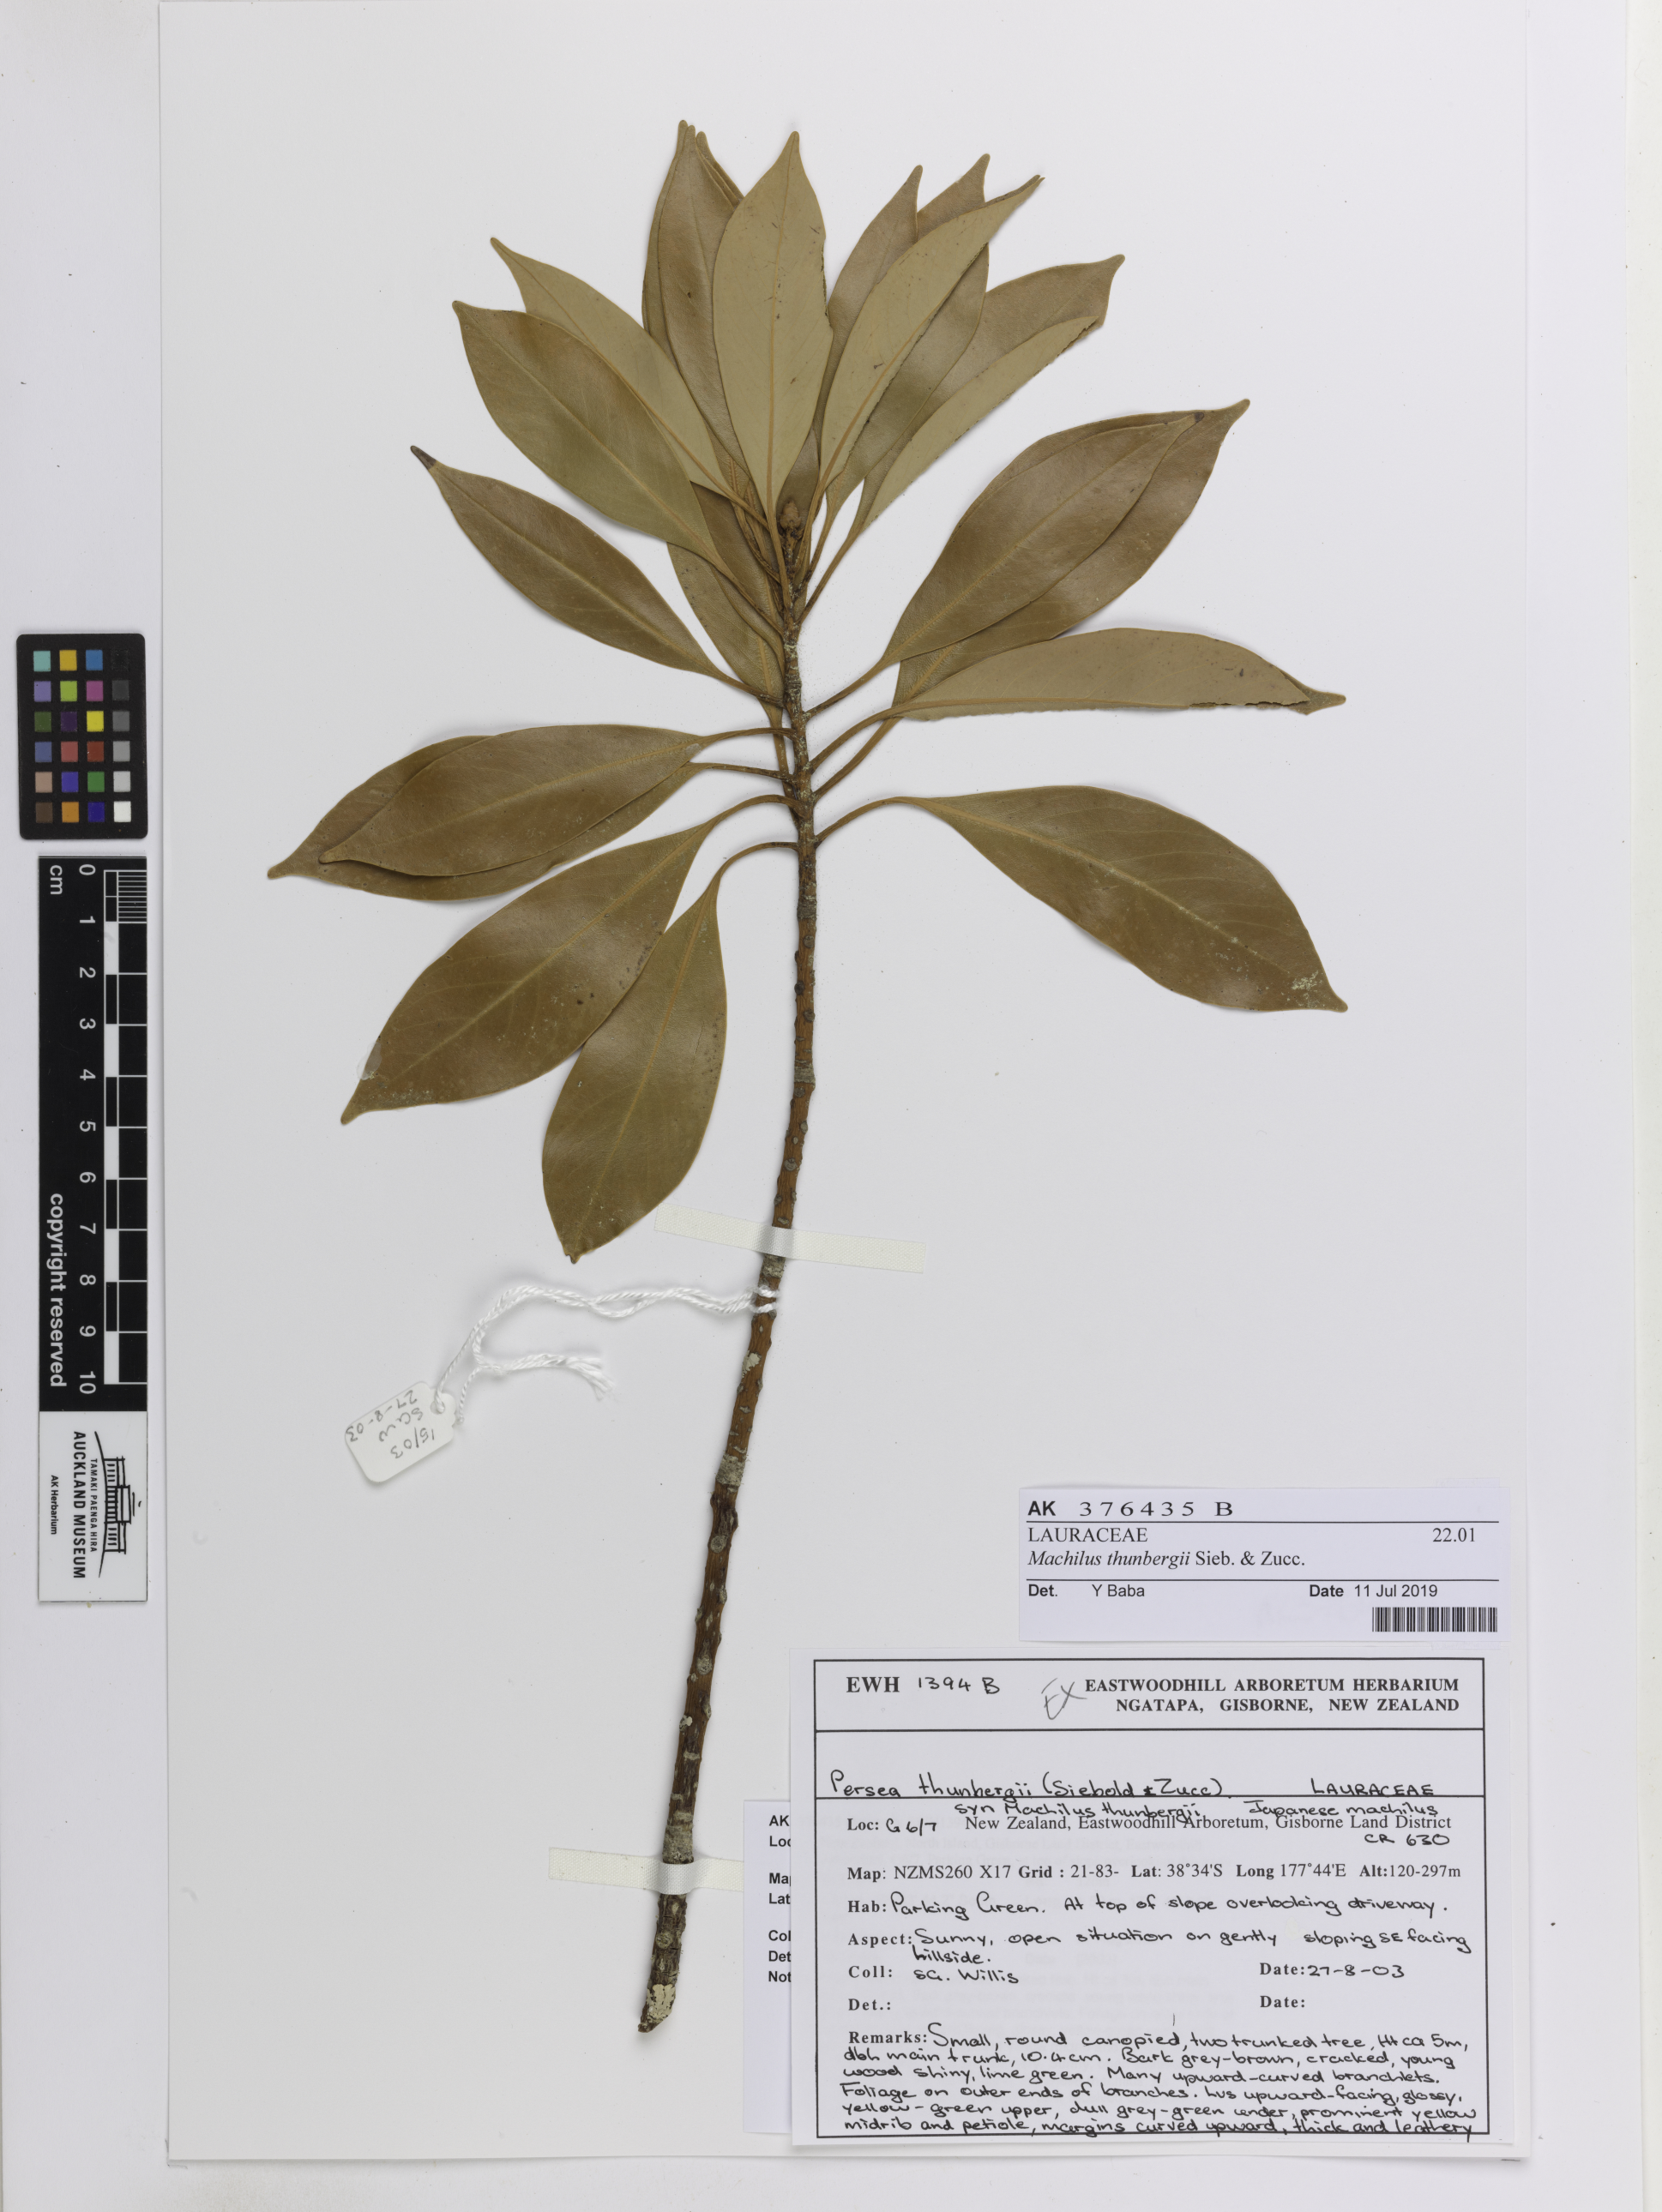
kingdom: Plantae
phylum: Tracheophyta
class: Magnoliopsida
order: Laurales
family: Lauraceae
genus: Machilus
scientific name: Machilus thunbergii
